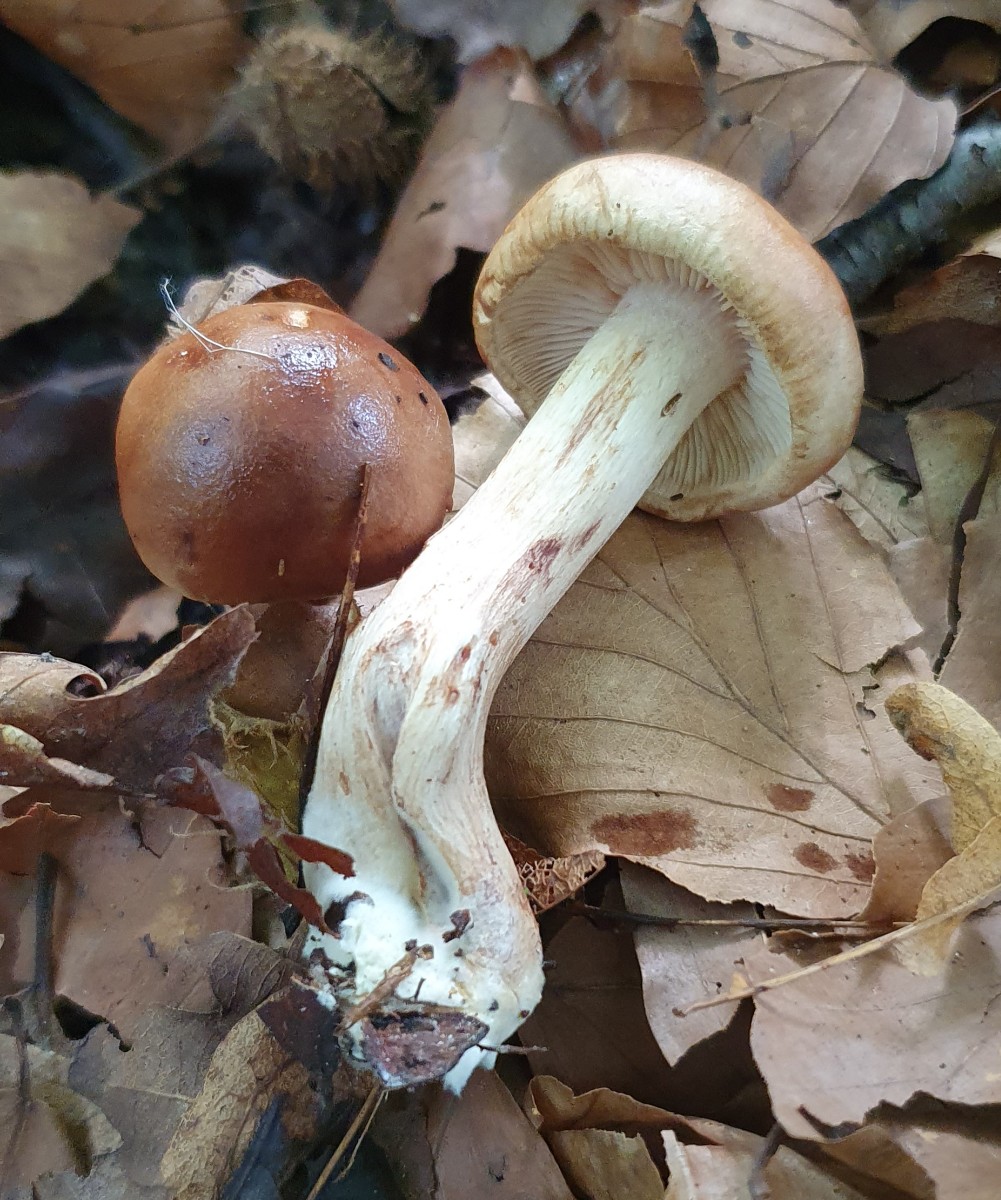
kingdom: Fungi
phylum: Basidiomycota
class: Agaricomycetes
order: Agaricales
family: Tricholomataceae
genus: Tricholoma
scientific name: Tricholoma ustale
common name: sveden ridderhat
